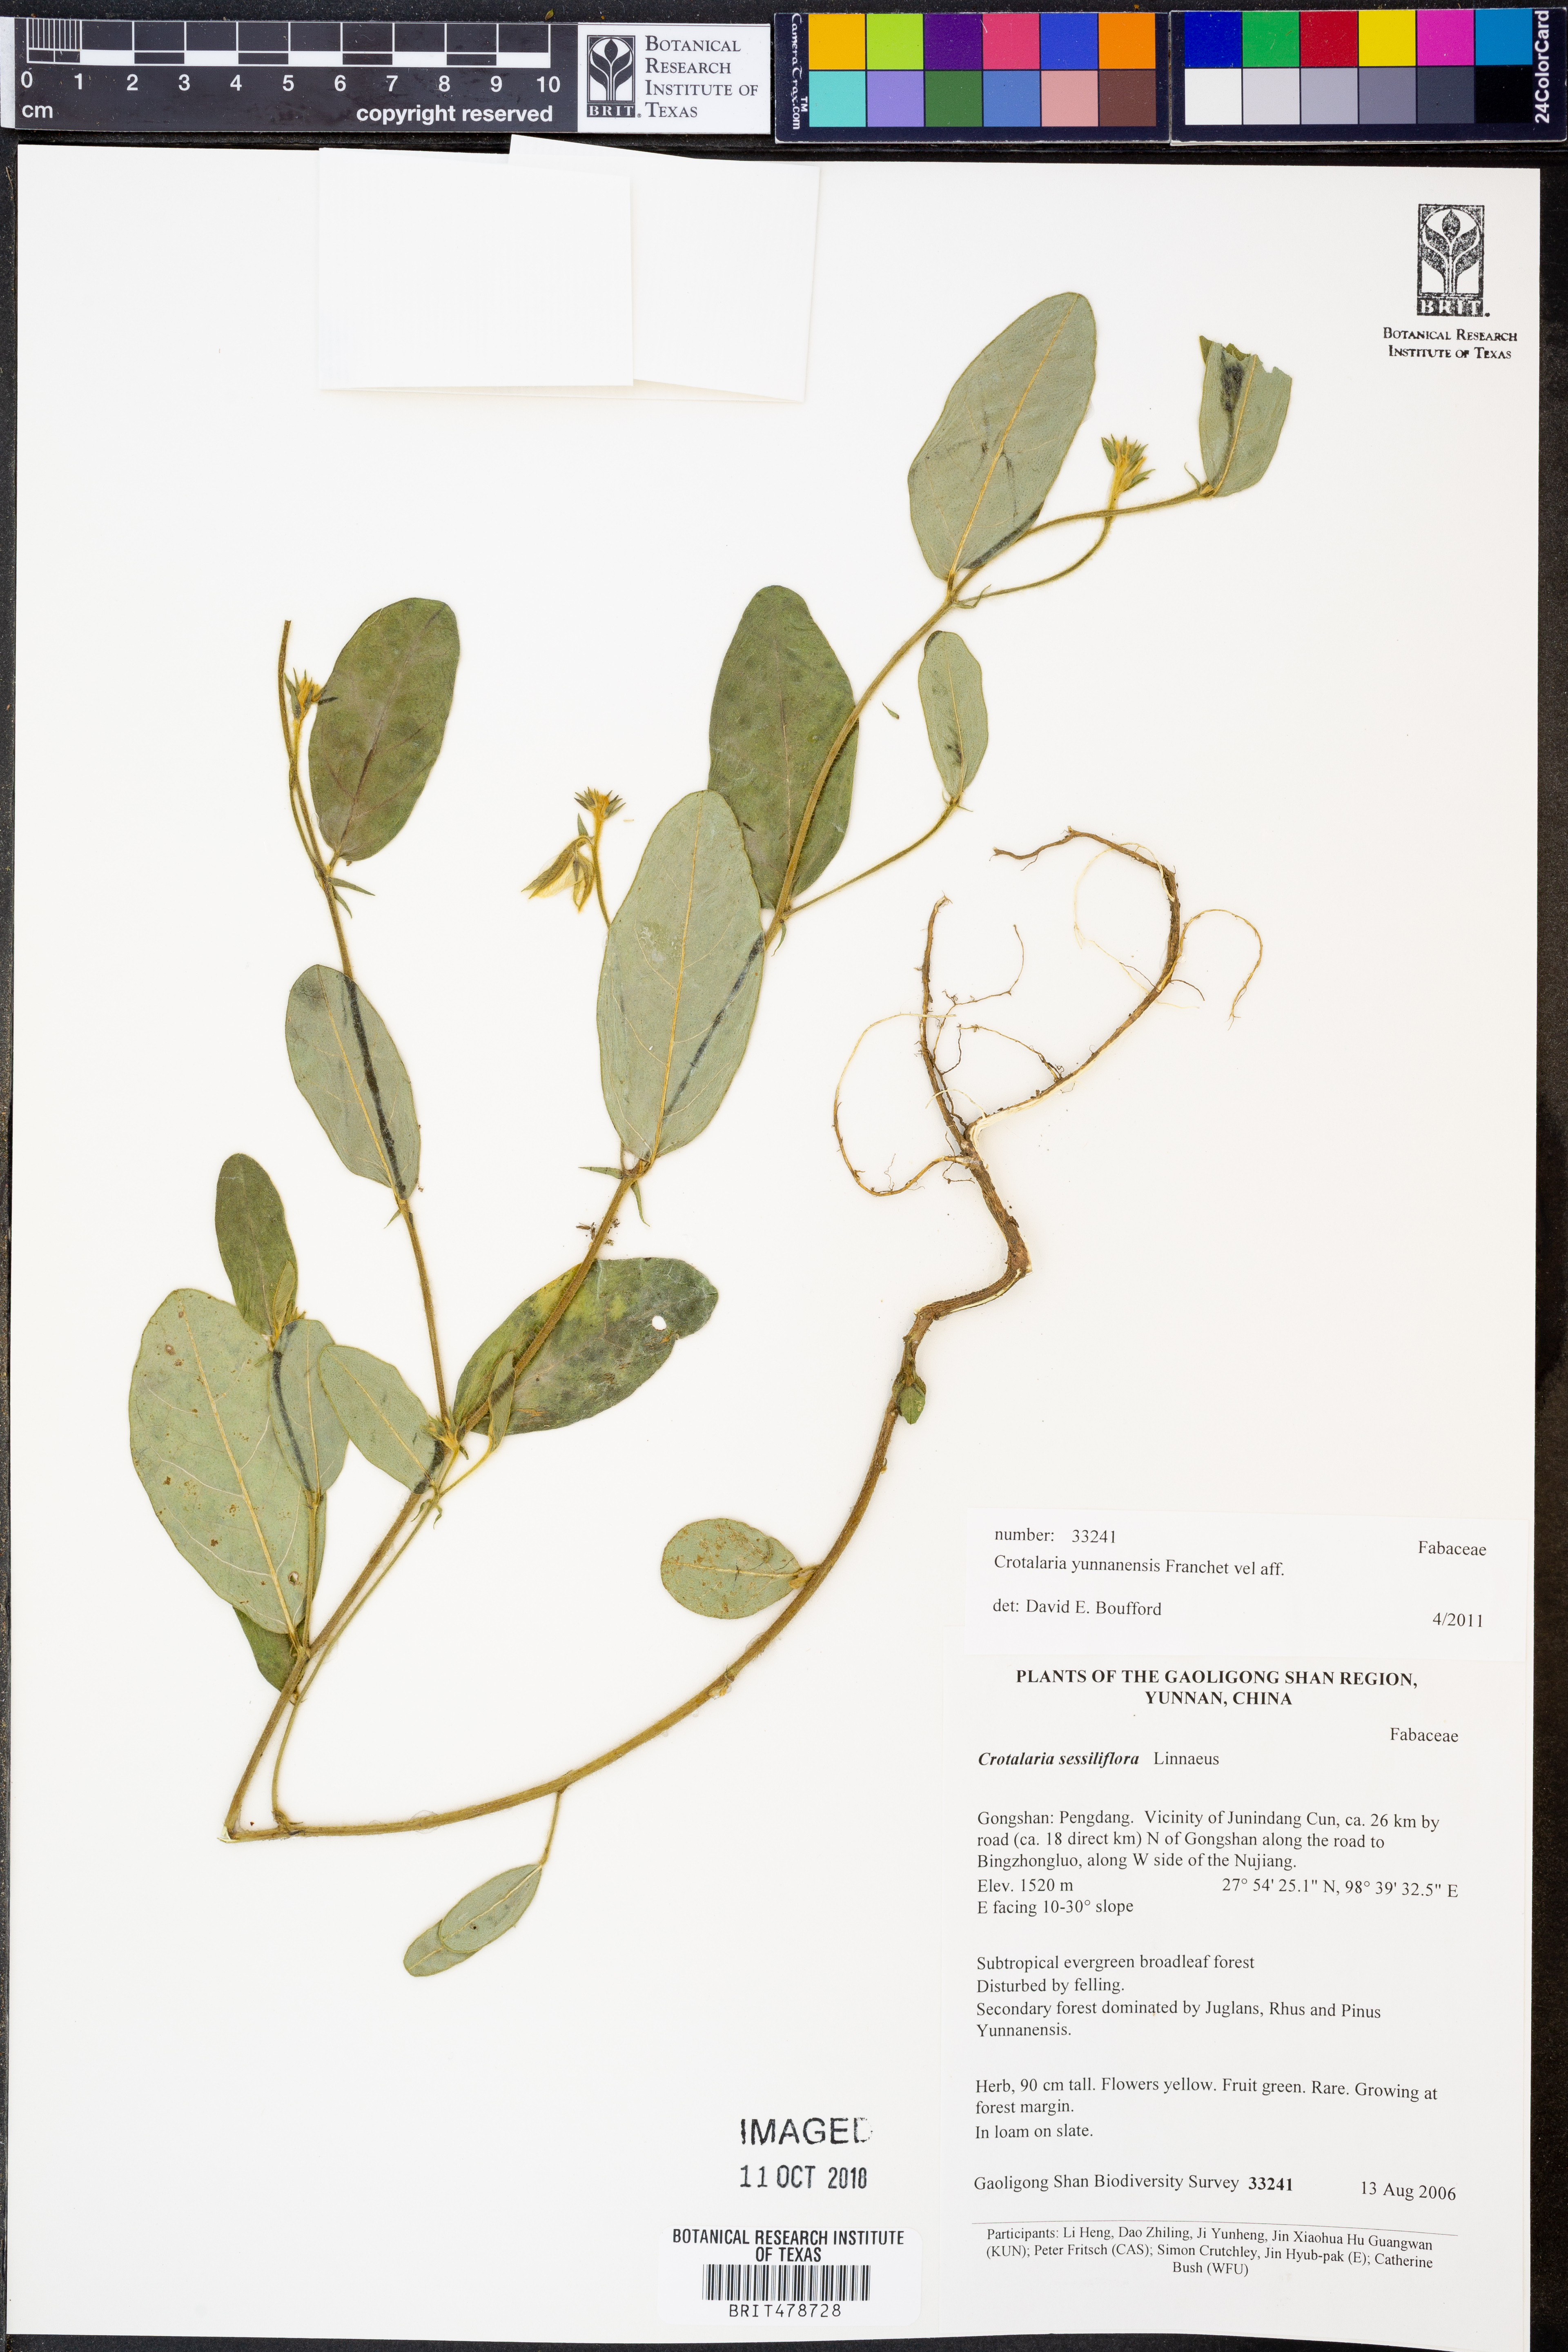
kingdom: Plantae
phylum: Tracheophyta
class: Magnoliopsida
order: Fabales
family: Fabaceae
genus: Crotalaria
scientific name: Crotalaria yunnanensis
